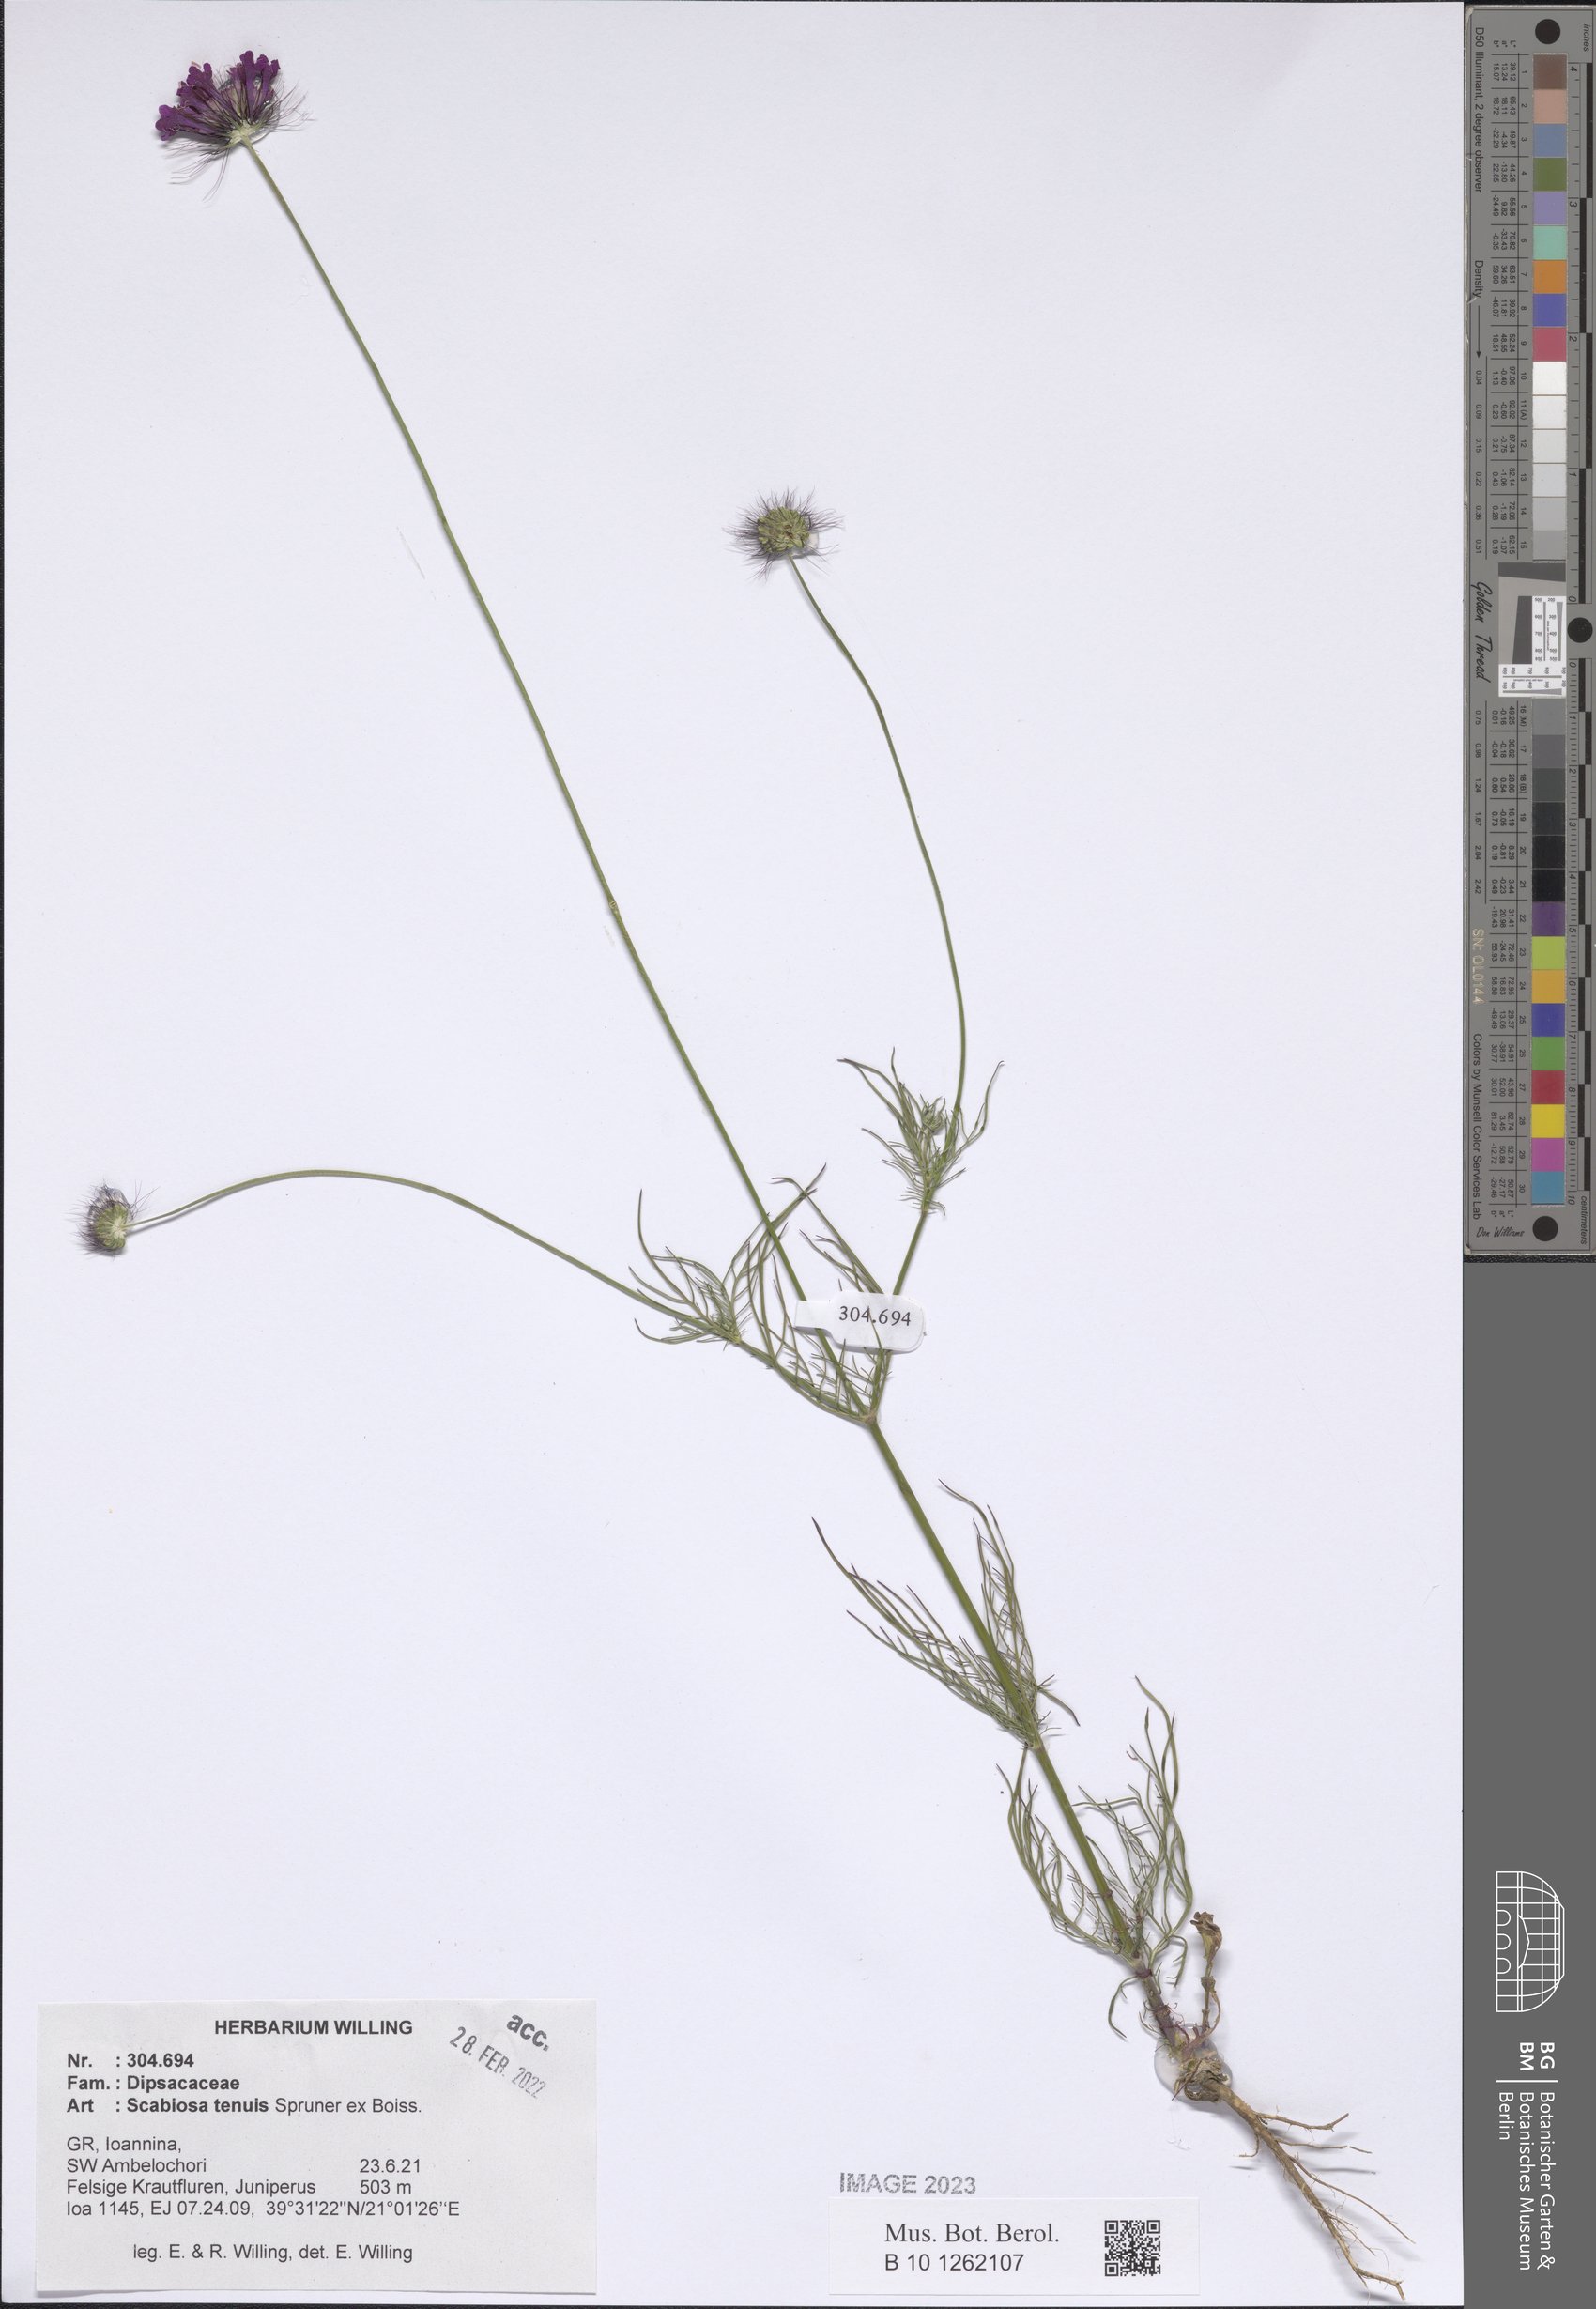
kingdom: Plantae
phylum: Tracheophyta
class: Magnoliopsida
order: Dipsacales
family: Caprifoliaceae
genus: Scabiosa
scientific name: Scabiosa tenuis
